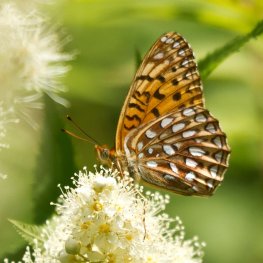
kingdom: Animalia
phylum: Arthropoda
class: Insecta
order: Lepidoptera
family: Nymphalidae
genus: Speyeria
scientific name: Speyeria atlantis
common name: Atlantis Fritillary
